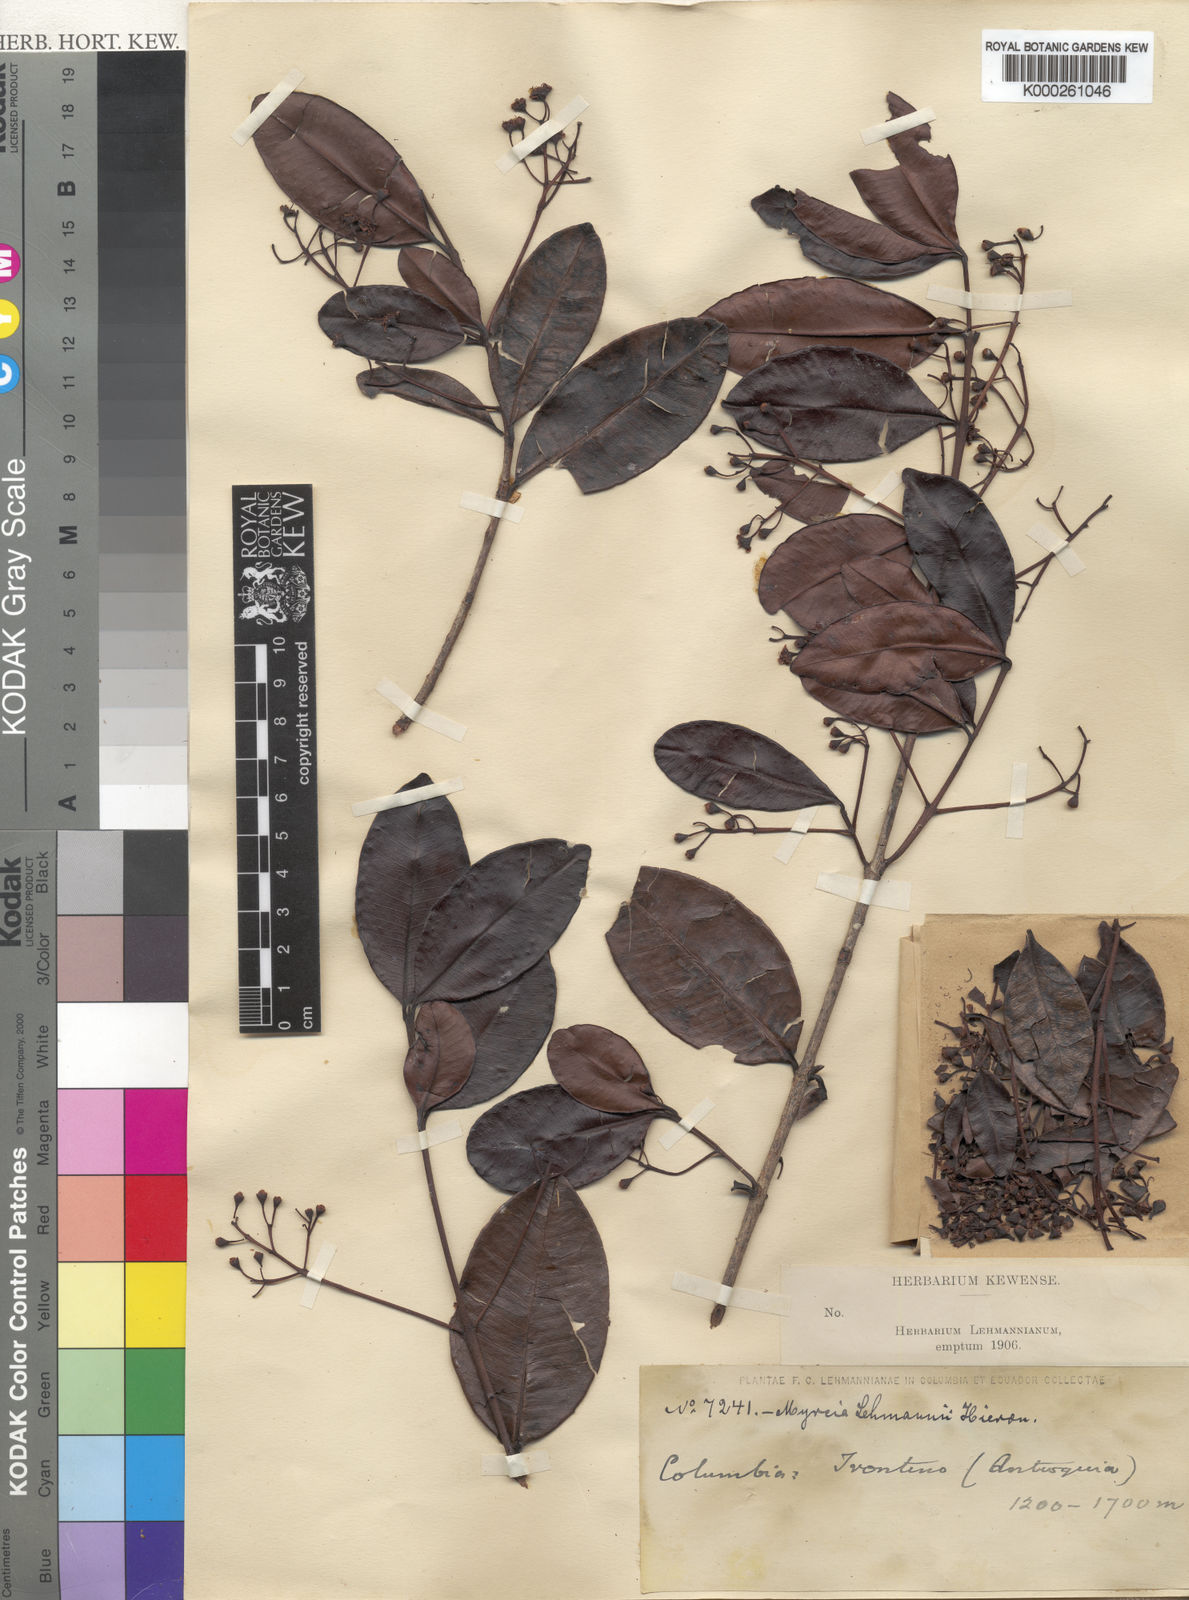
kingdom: Plantae
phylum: Tracheophyta
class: Magnoliopsida
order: Myrtales
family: Myrtaceae
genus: Myrcia
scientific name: Myrcia guianensis
